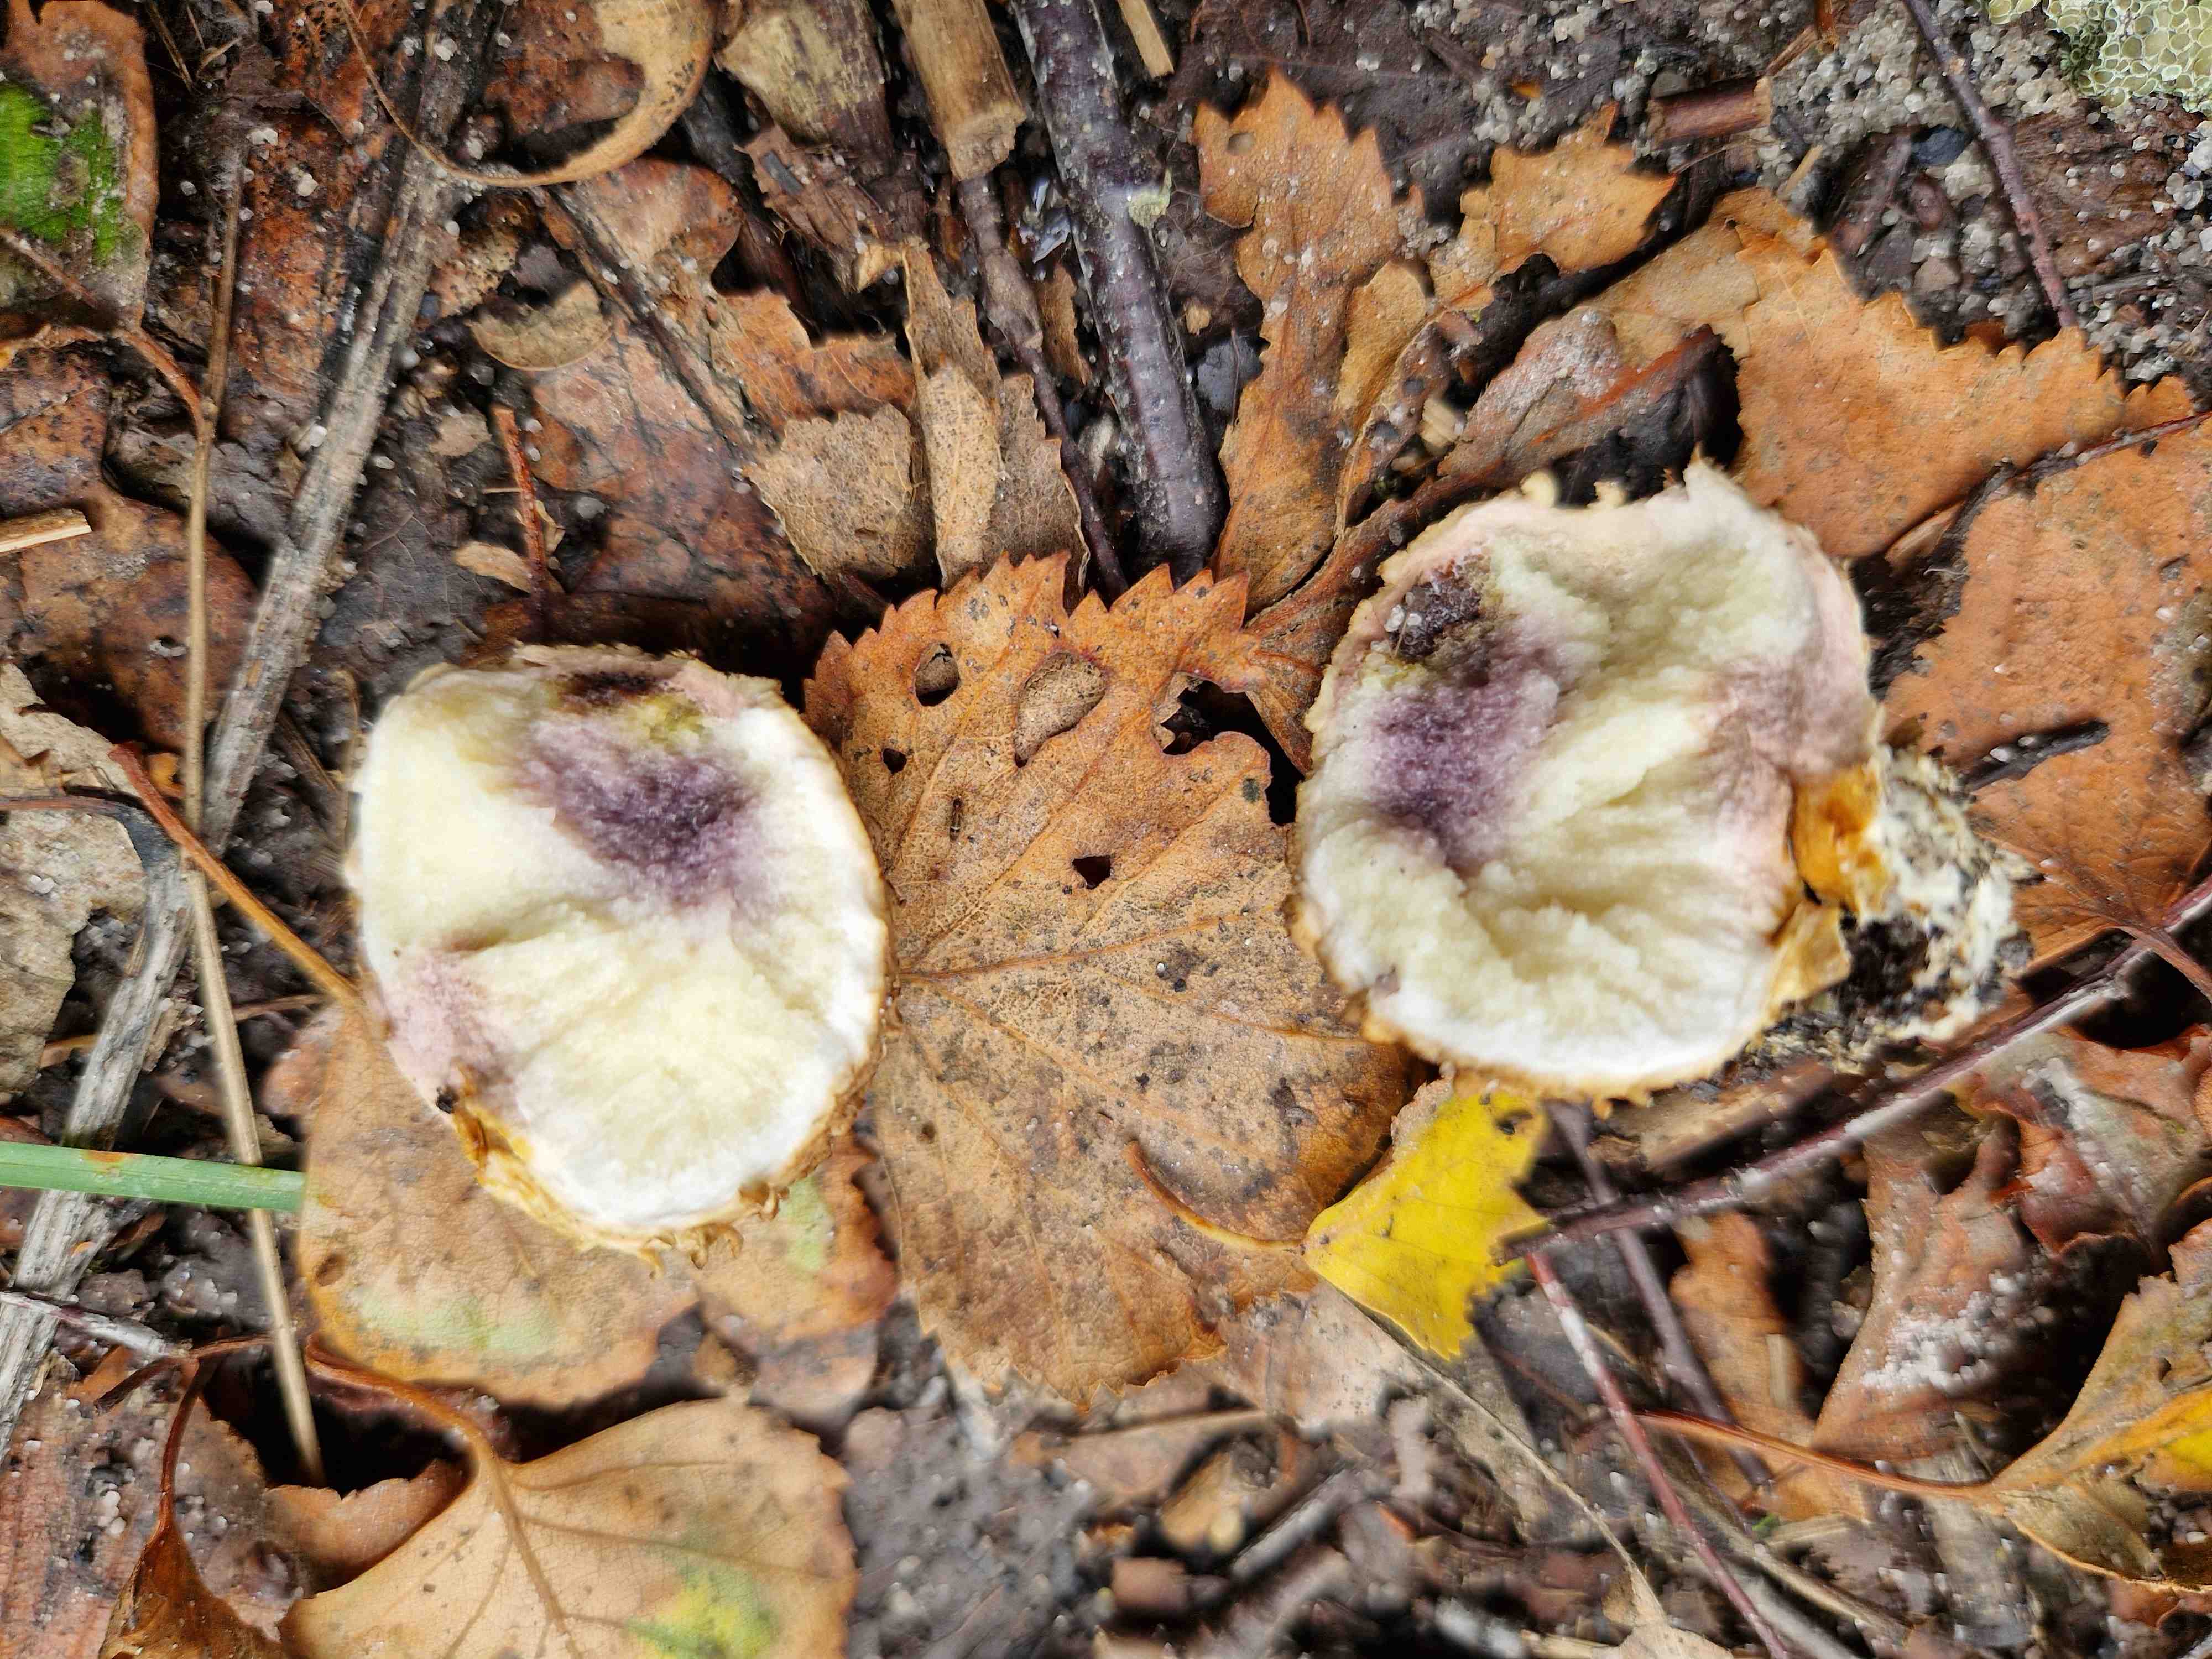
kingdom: Fungi
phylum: Basidiomycota
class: Agaricomycetes
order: Boletales
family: Sclerodermataceae
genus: Scleroderma
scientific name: Scleroderma citrinum
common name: almindelig bruskbold
